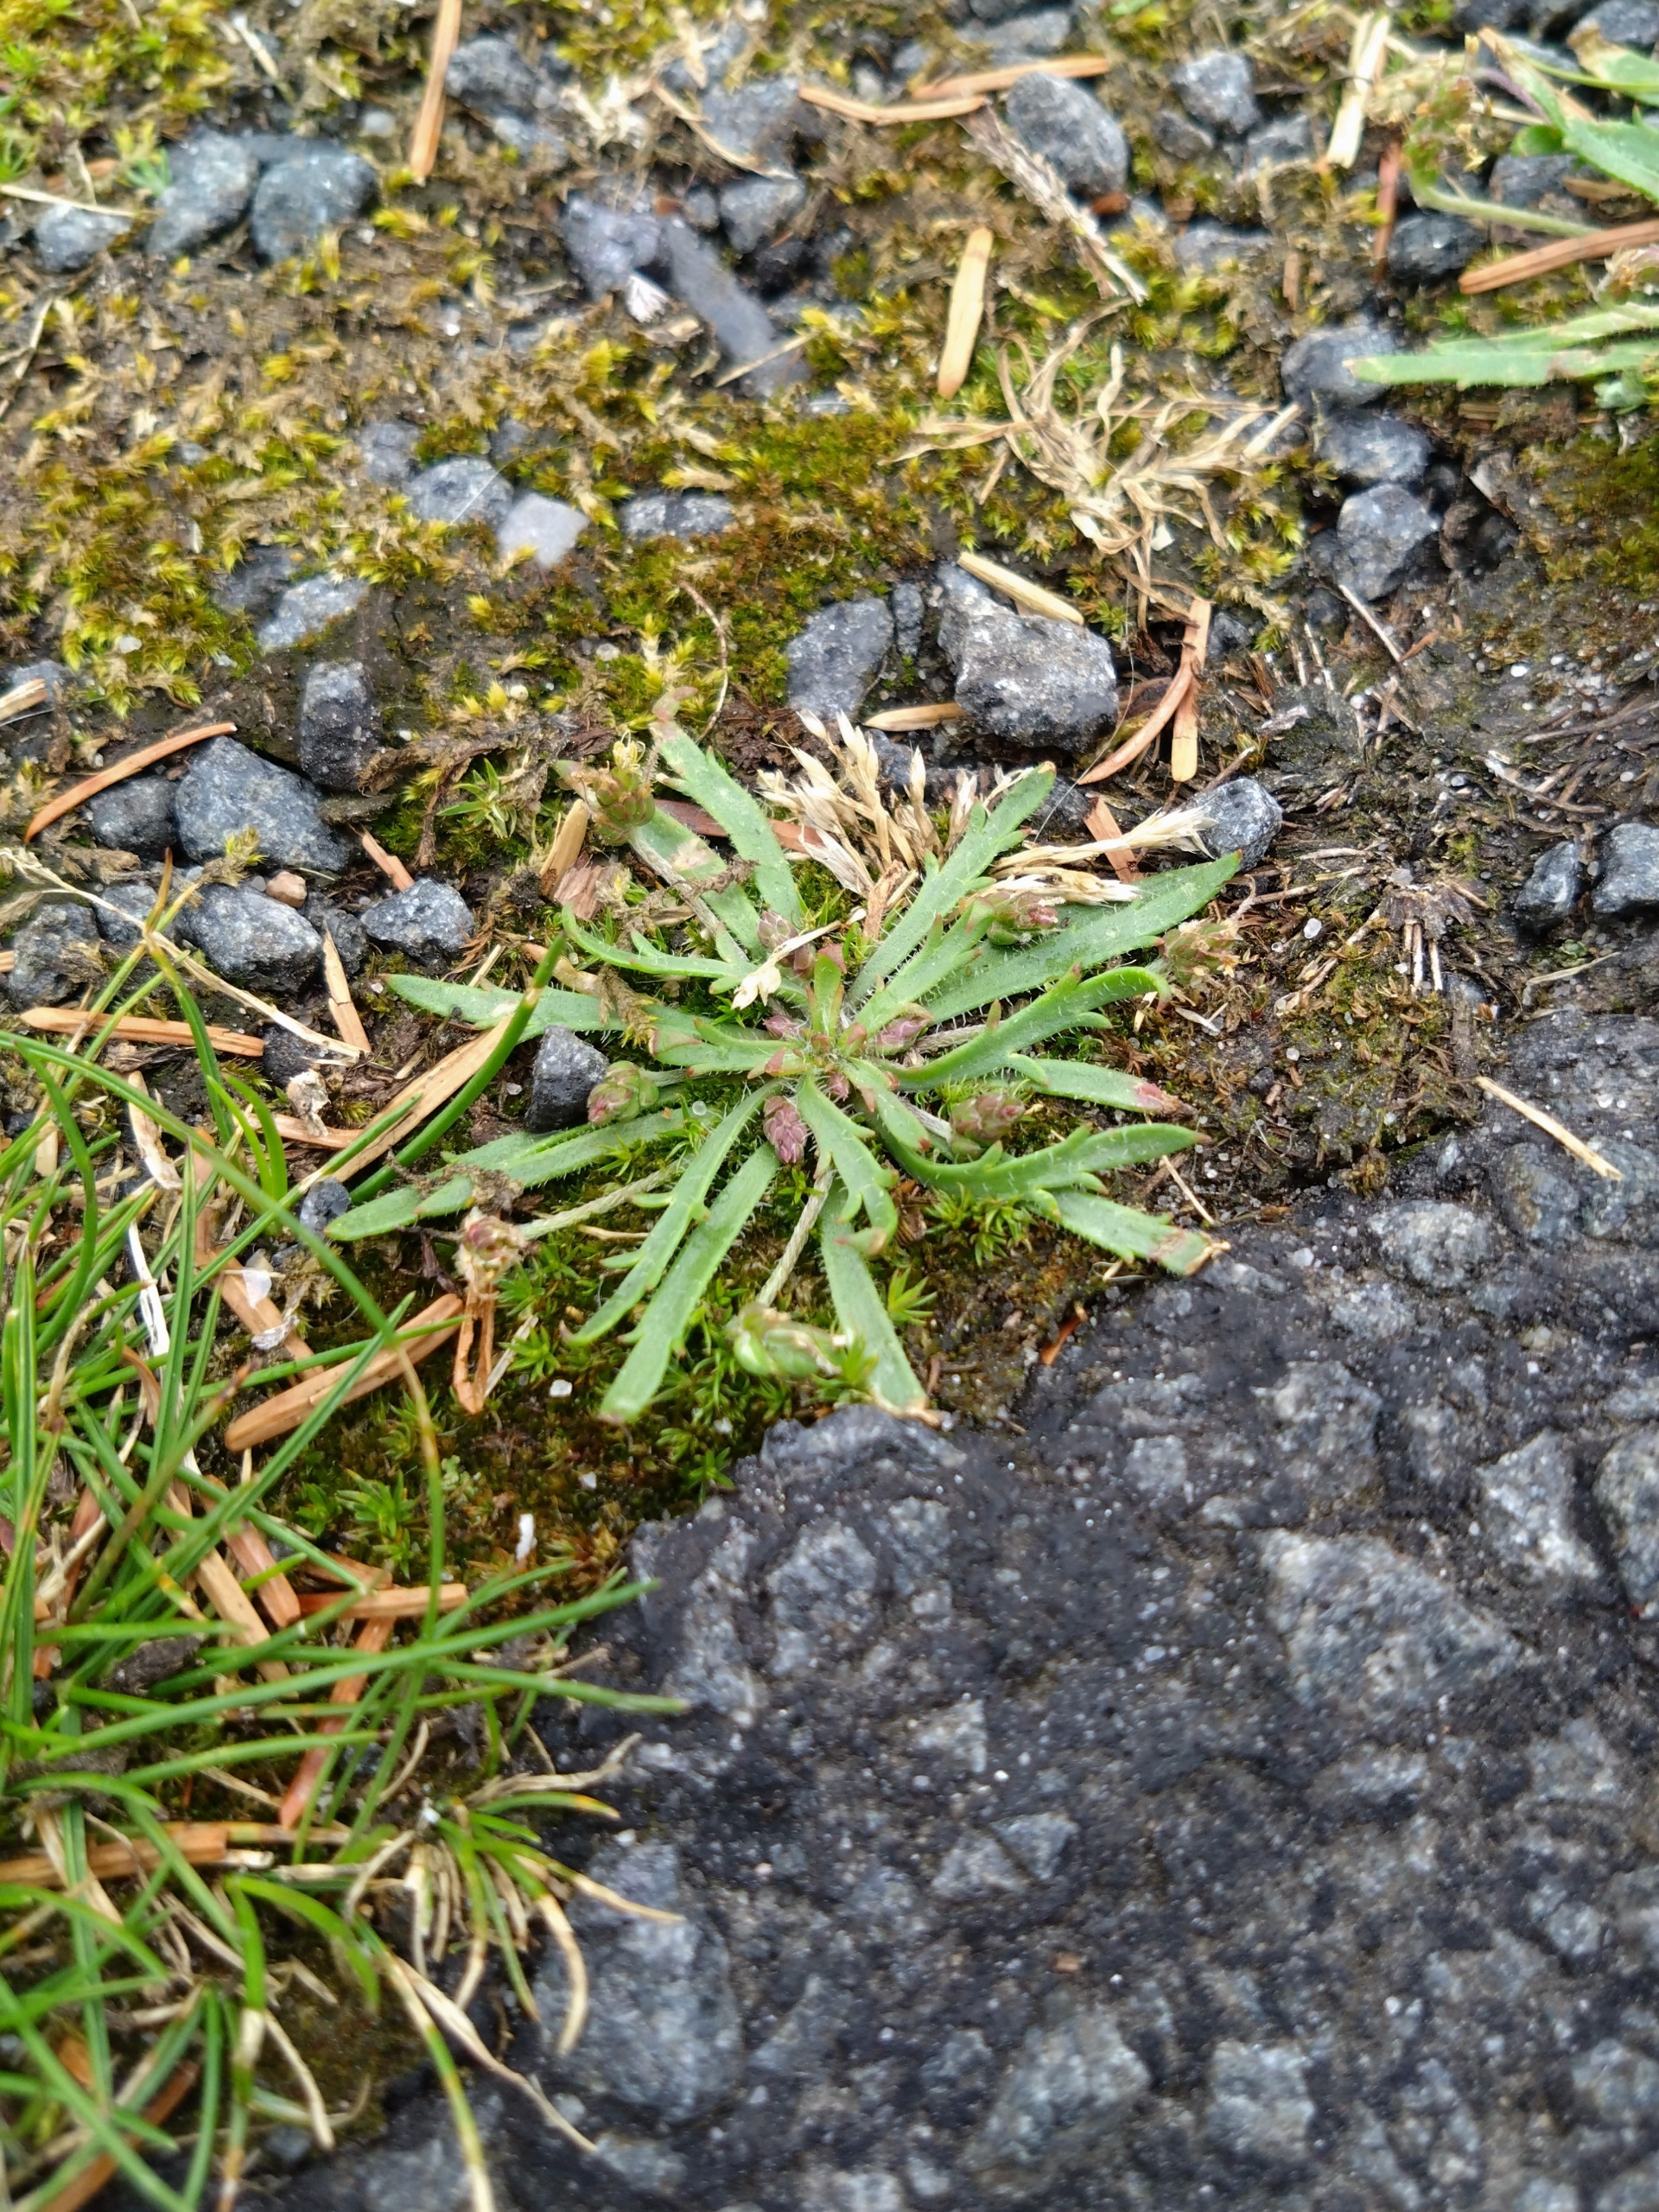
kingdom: Plantae
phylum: Tracheophyta
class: Magnoliopsida
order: Lamiales
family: Plantaginaceae
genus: Plantago
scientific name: Plantago coronopus
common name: Fliget vejbred
